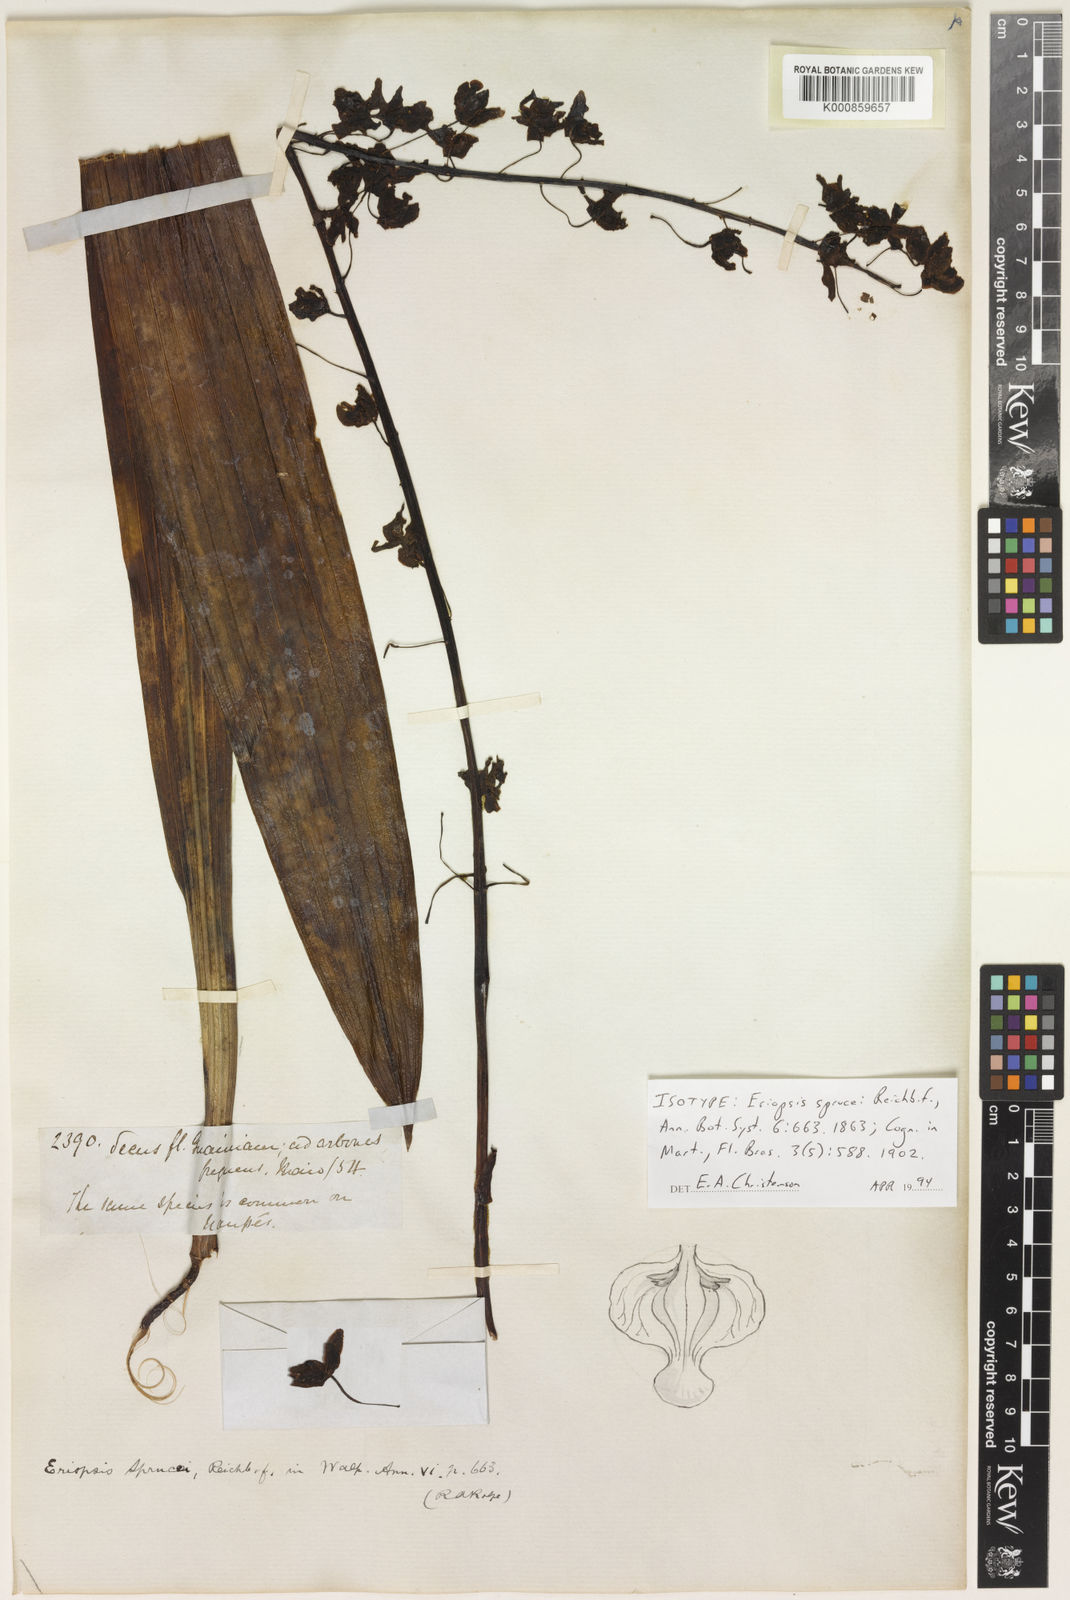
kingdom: Plantae
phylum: Tracheophyta
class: Liliopsida
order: Asparagales
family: Orchidaceae
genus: Eriopsis
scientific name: Eriopsis altissima
